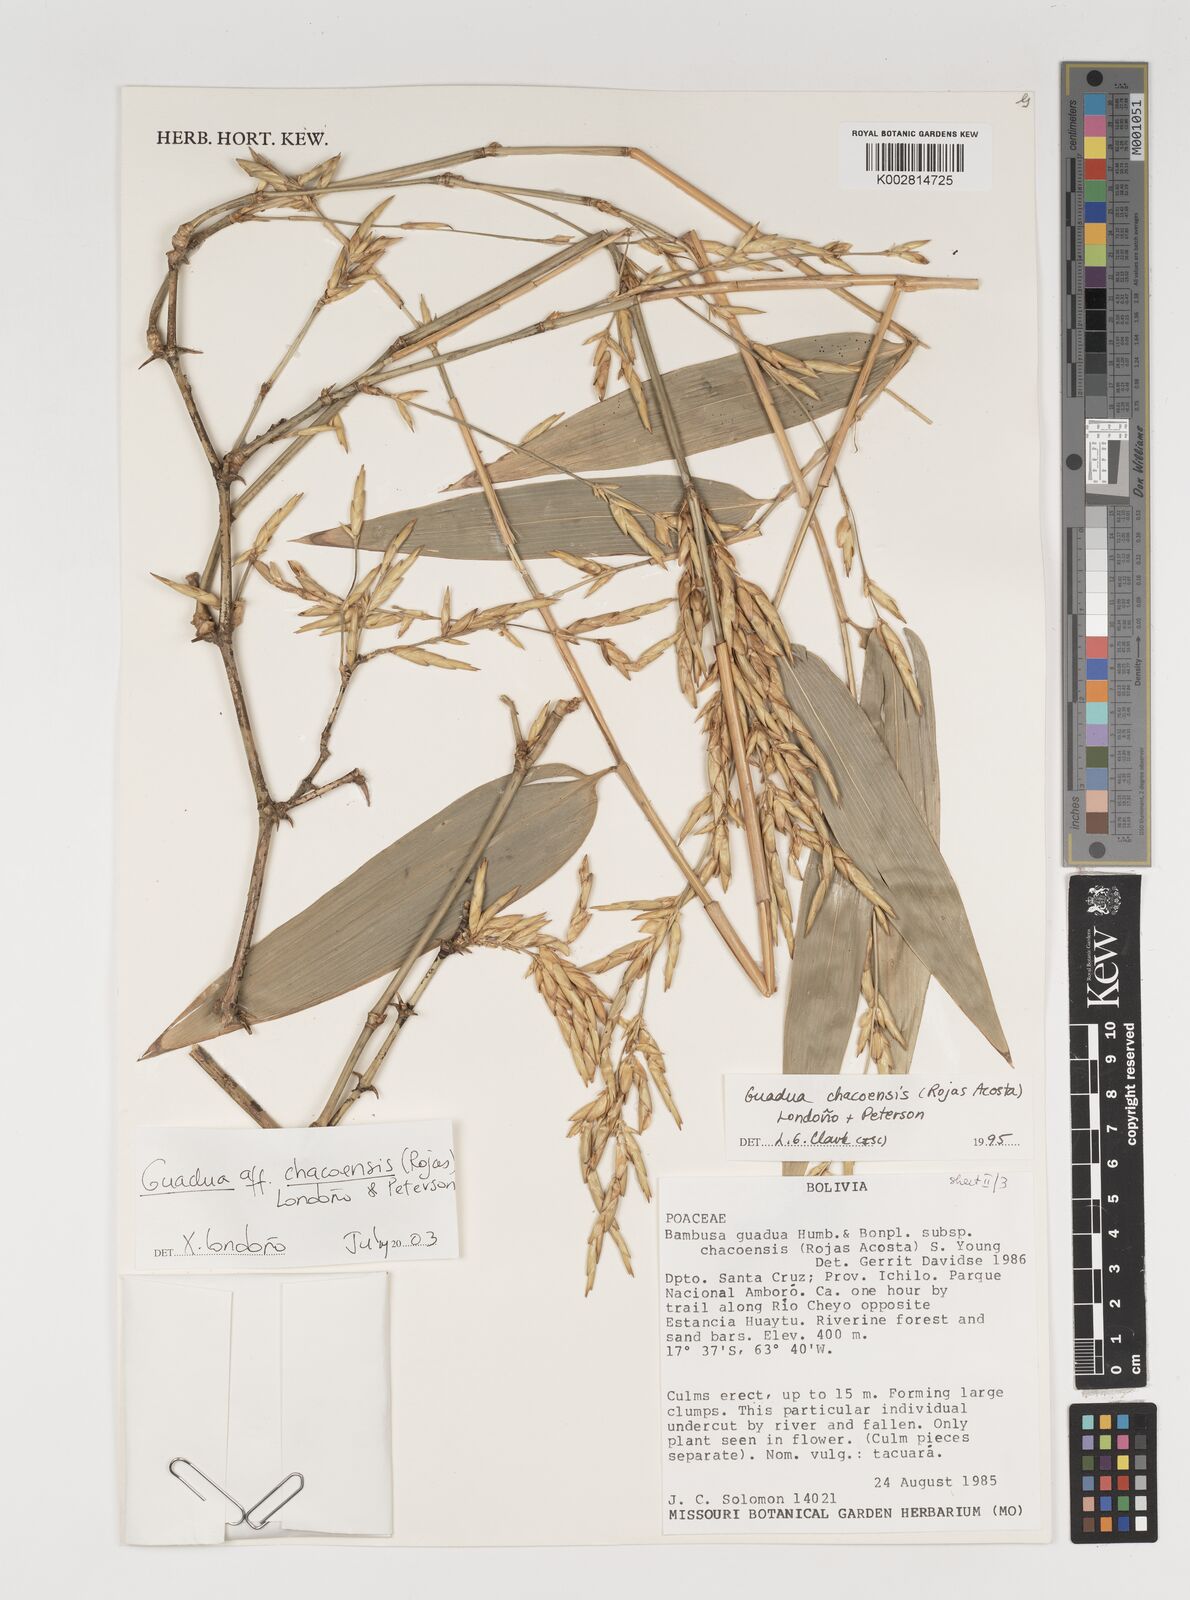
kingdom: Plantae
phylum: Tracheophyta
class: Liliopsida
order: Poales
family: Poaceae
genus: Guadua
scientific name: Guadua chacoensis
